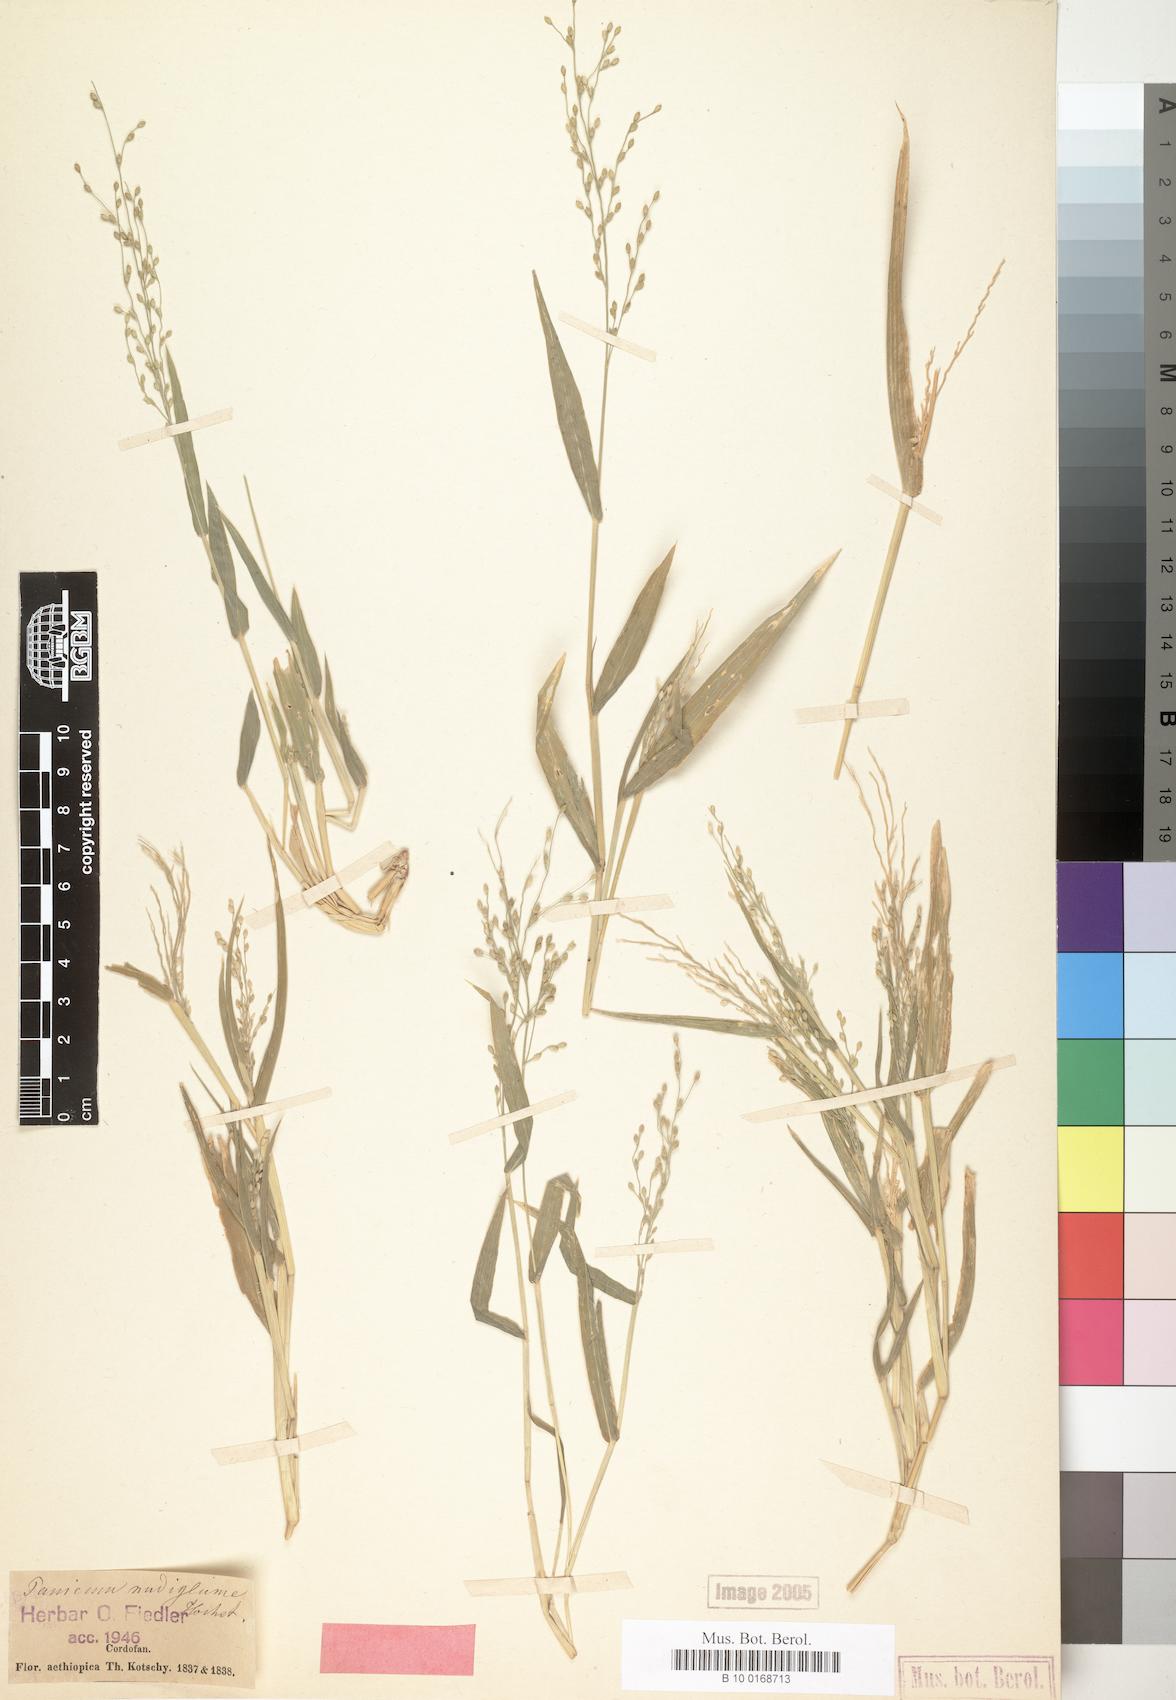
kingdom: Plantae
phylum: Tracheophyta
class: Liliopsida
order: Poales
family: Poaceae
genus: Urochloa
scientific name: Urochloa deflexa
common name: Guinea millet
